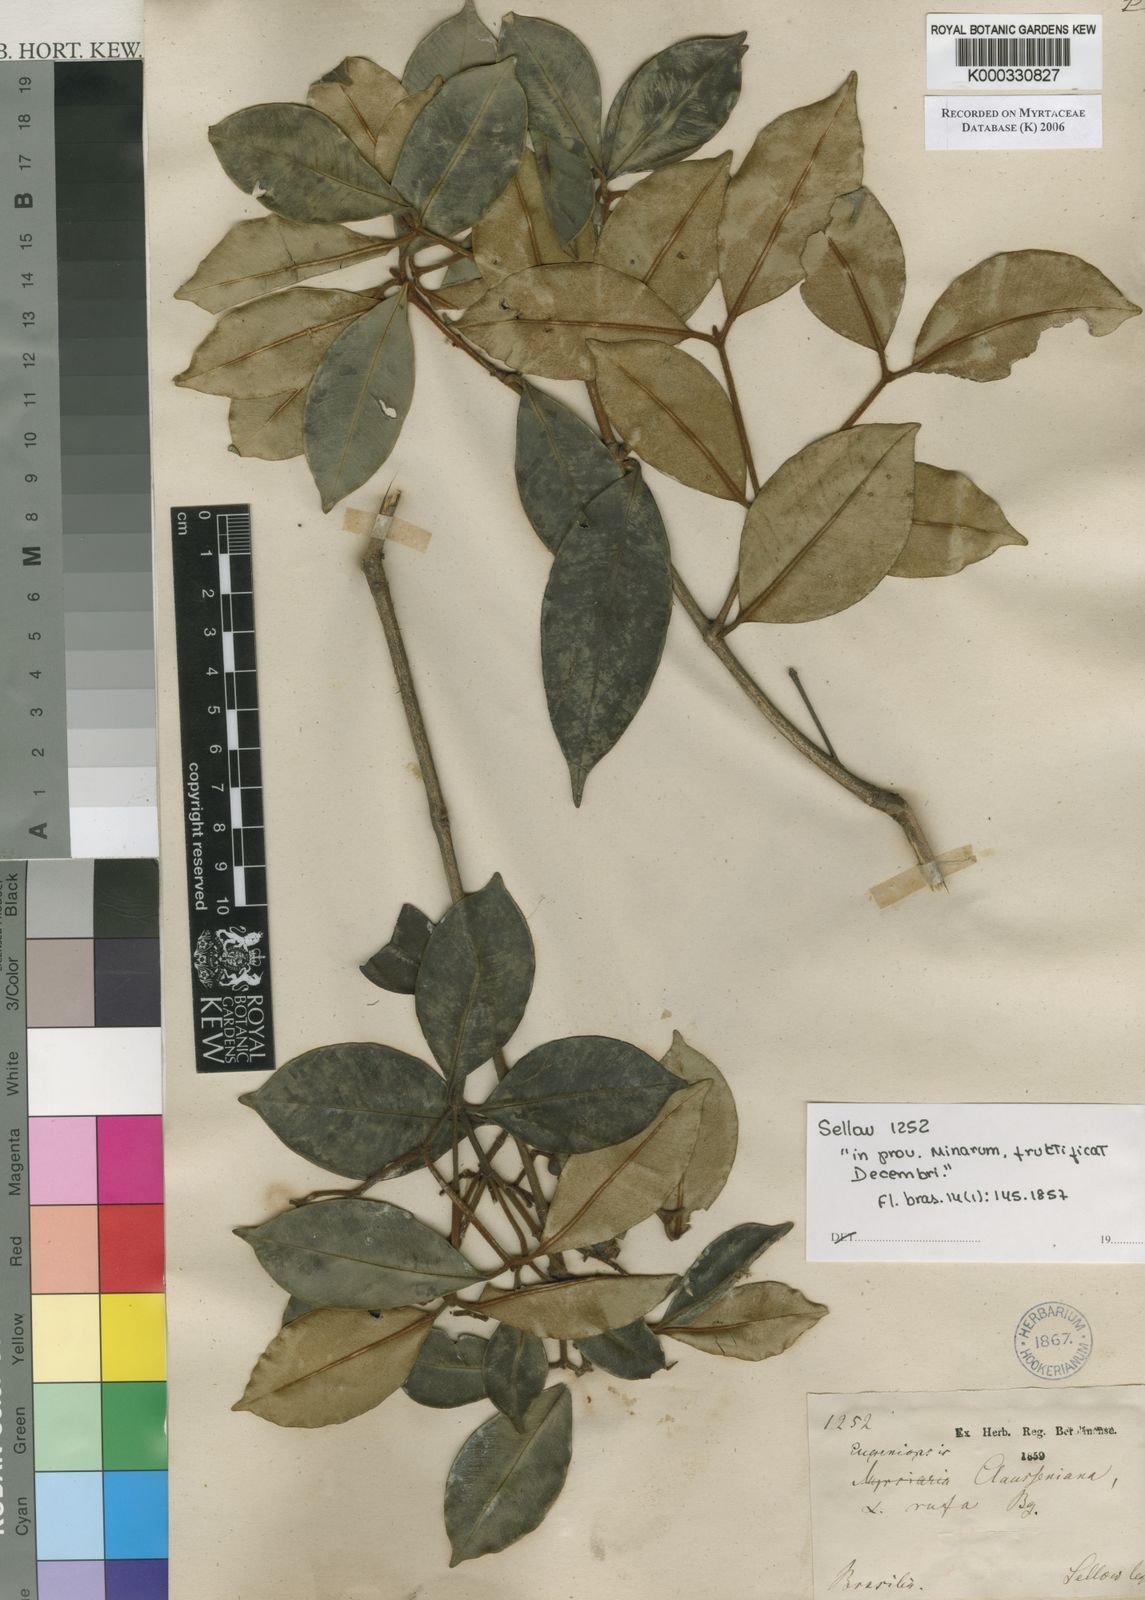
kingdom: Plantae
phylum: Tracheophyta
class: Magnoliopsida
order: Myrtales
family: Myrtaceae
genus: Marlierea
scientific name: Marlierea clausseniana
